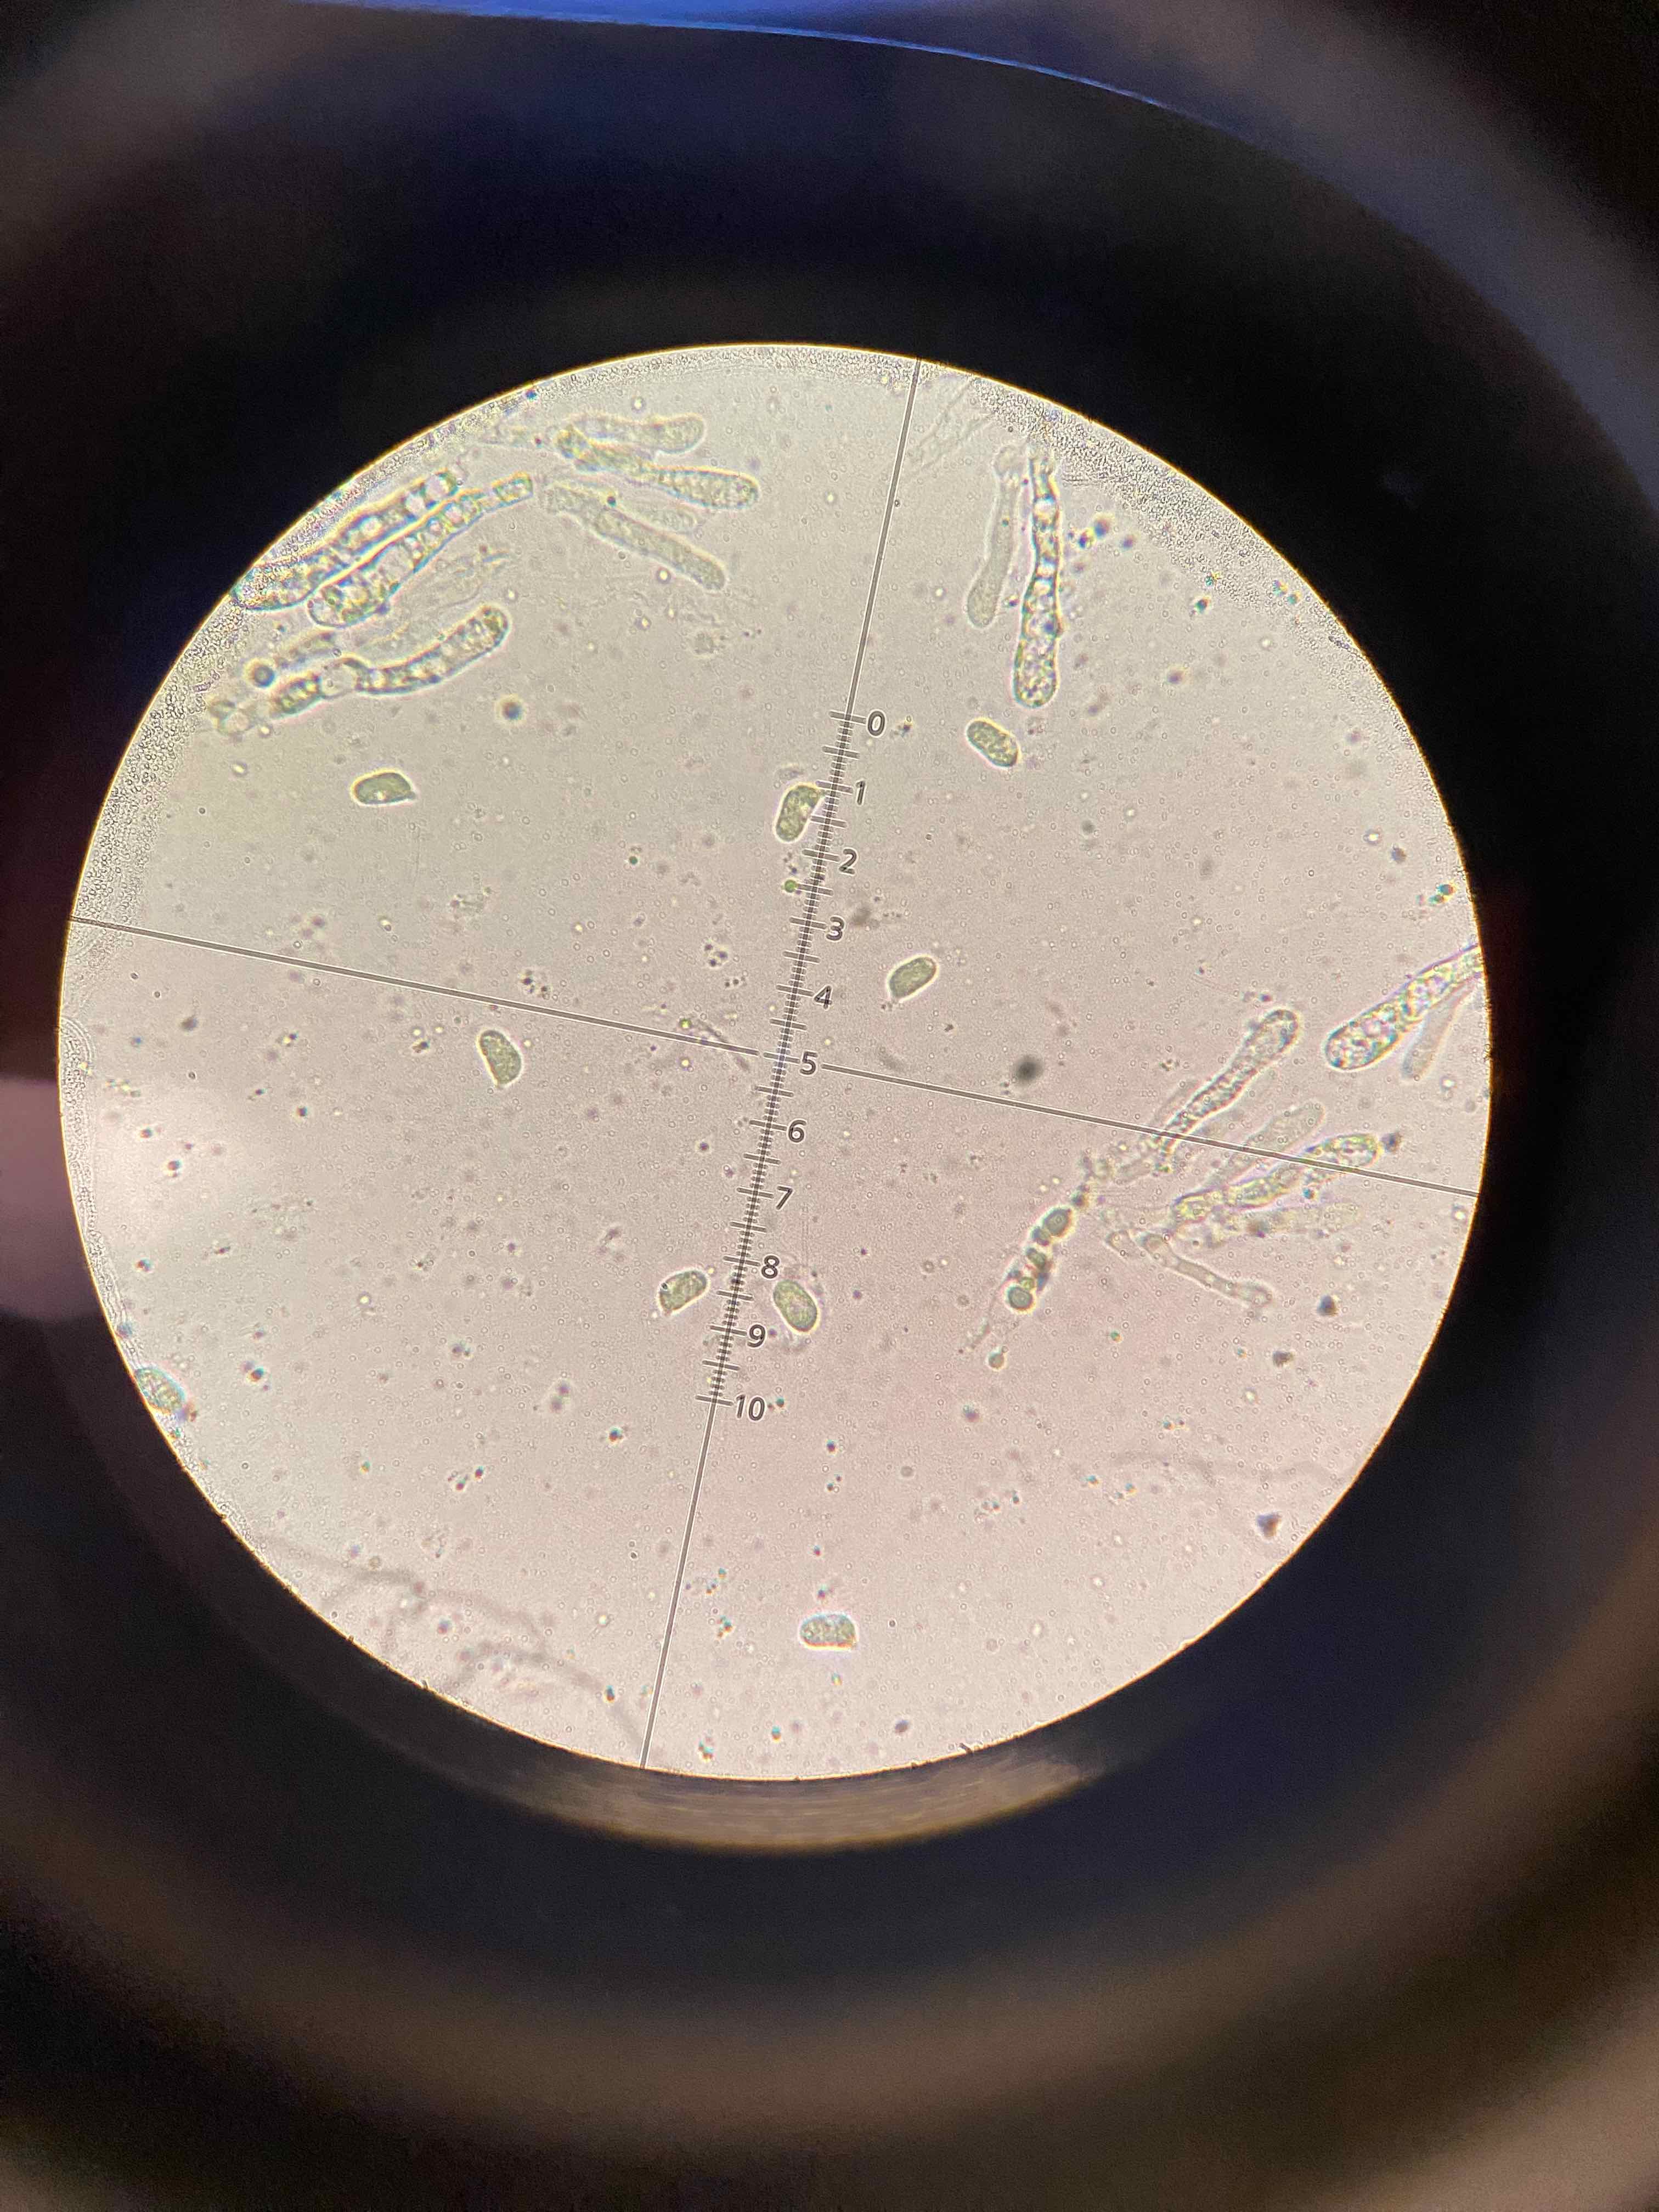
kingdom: Fungi
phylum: Basidiomycota
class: Agaricomycetes
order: Agaricales
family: Hygrophoraceae
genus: Hygrocybe
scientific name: Hygrocybe glutinipes
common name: slimstokket vokshat
